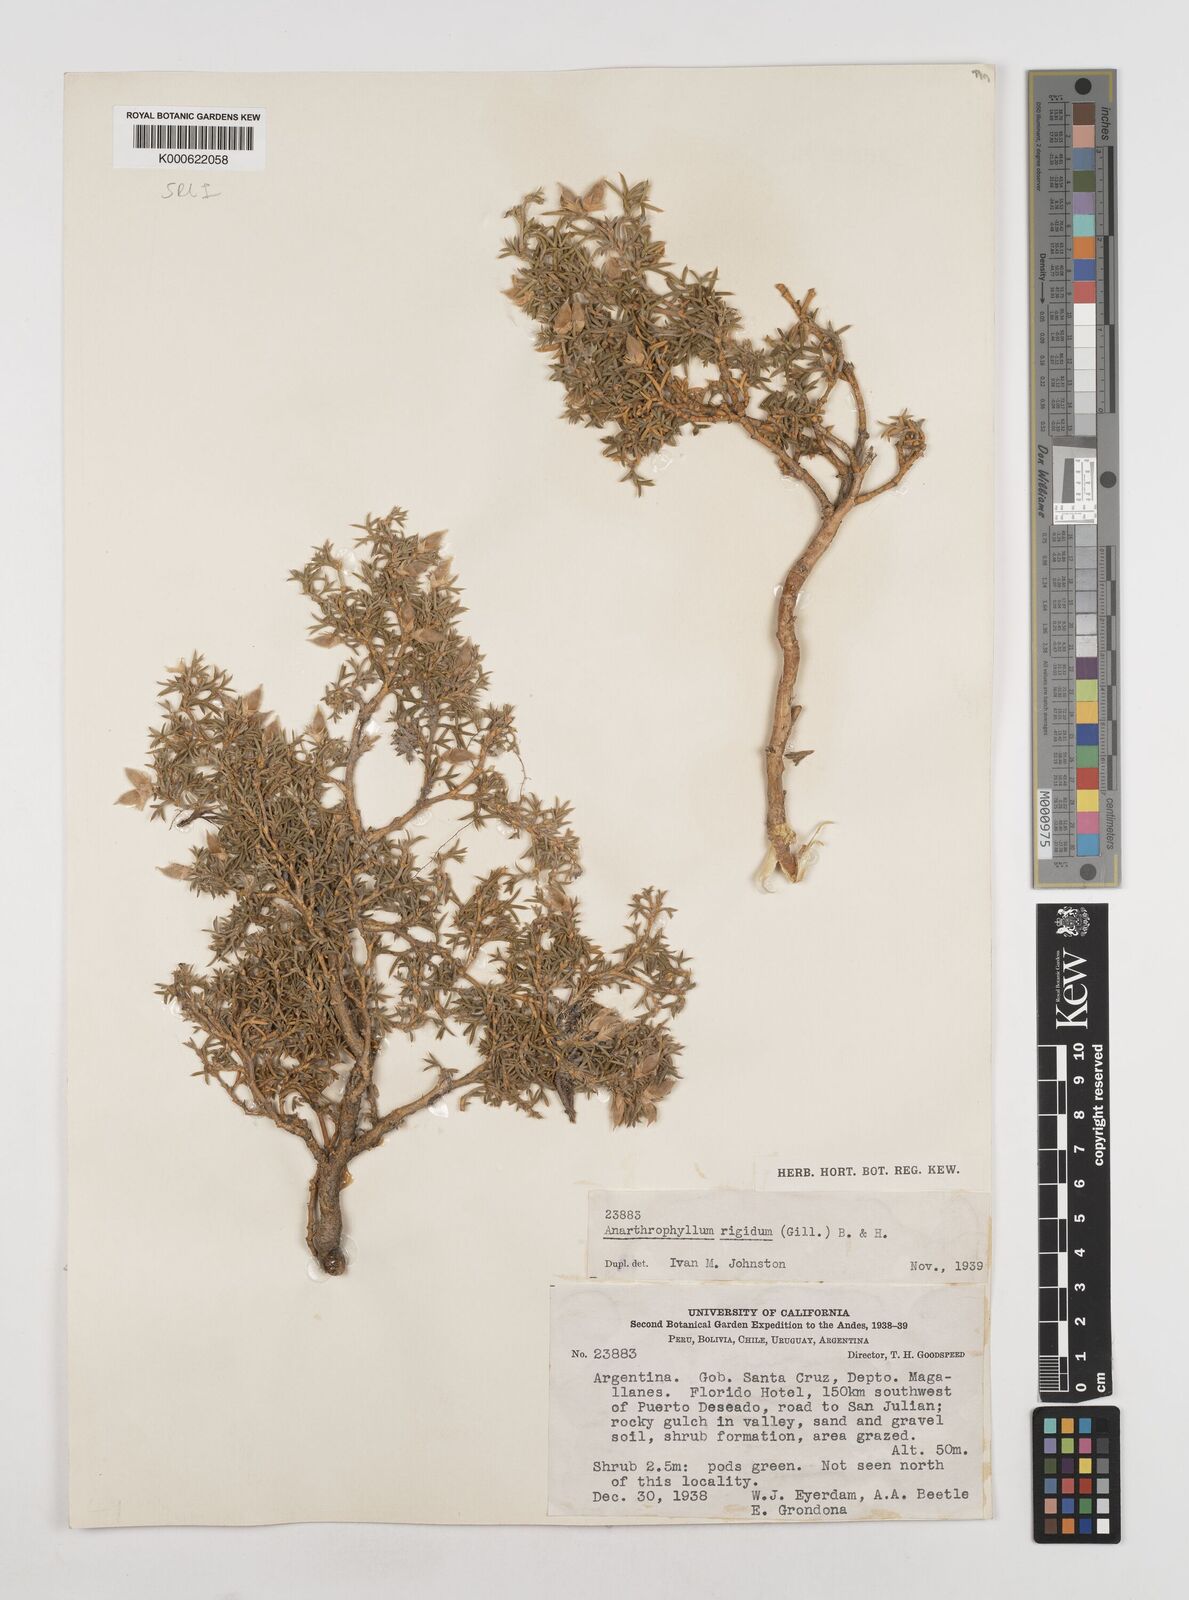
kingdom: Plantae
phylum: Tracheophyta
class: Magnoliopsida
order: Fabales
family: Fabaceae
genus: Anarthrophyllum
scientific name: Anarthrophyllum rigidum
